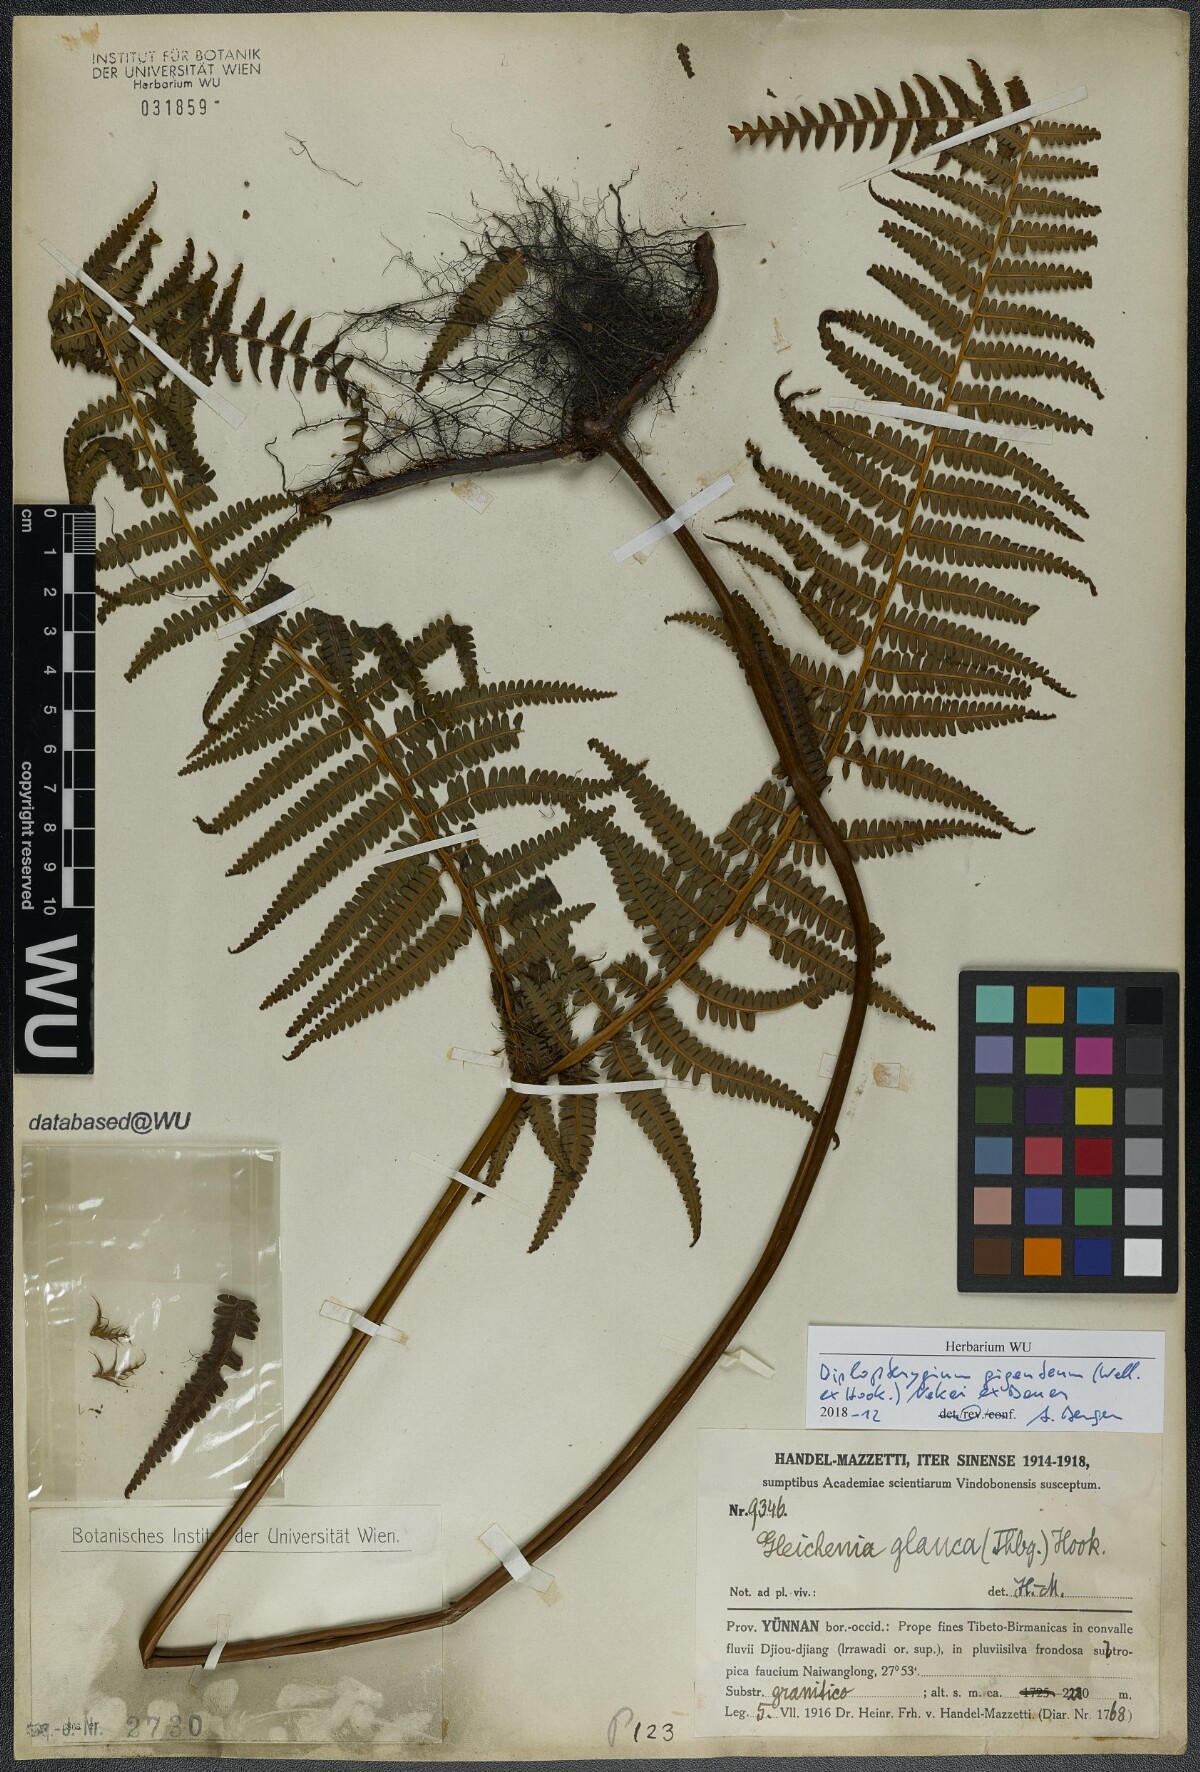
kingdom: Plantae
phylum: Tracheophyta
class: Polypodiopsida
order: Gleicheniales
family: Gleicheniaceae
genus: Diplopterygium
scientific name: Diplopterygium giganteum
